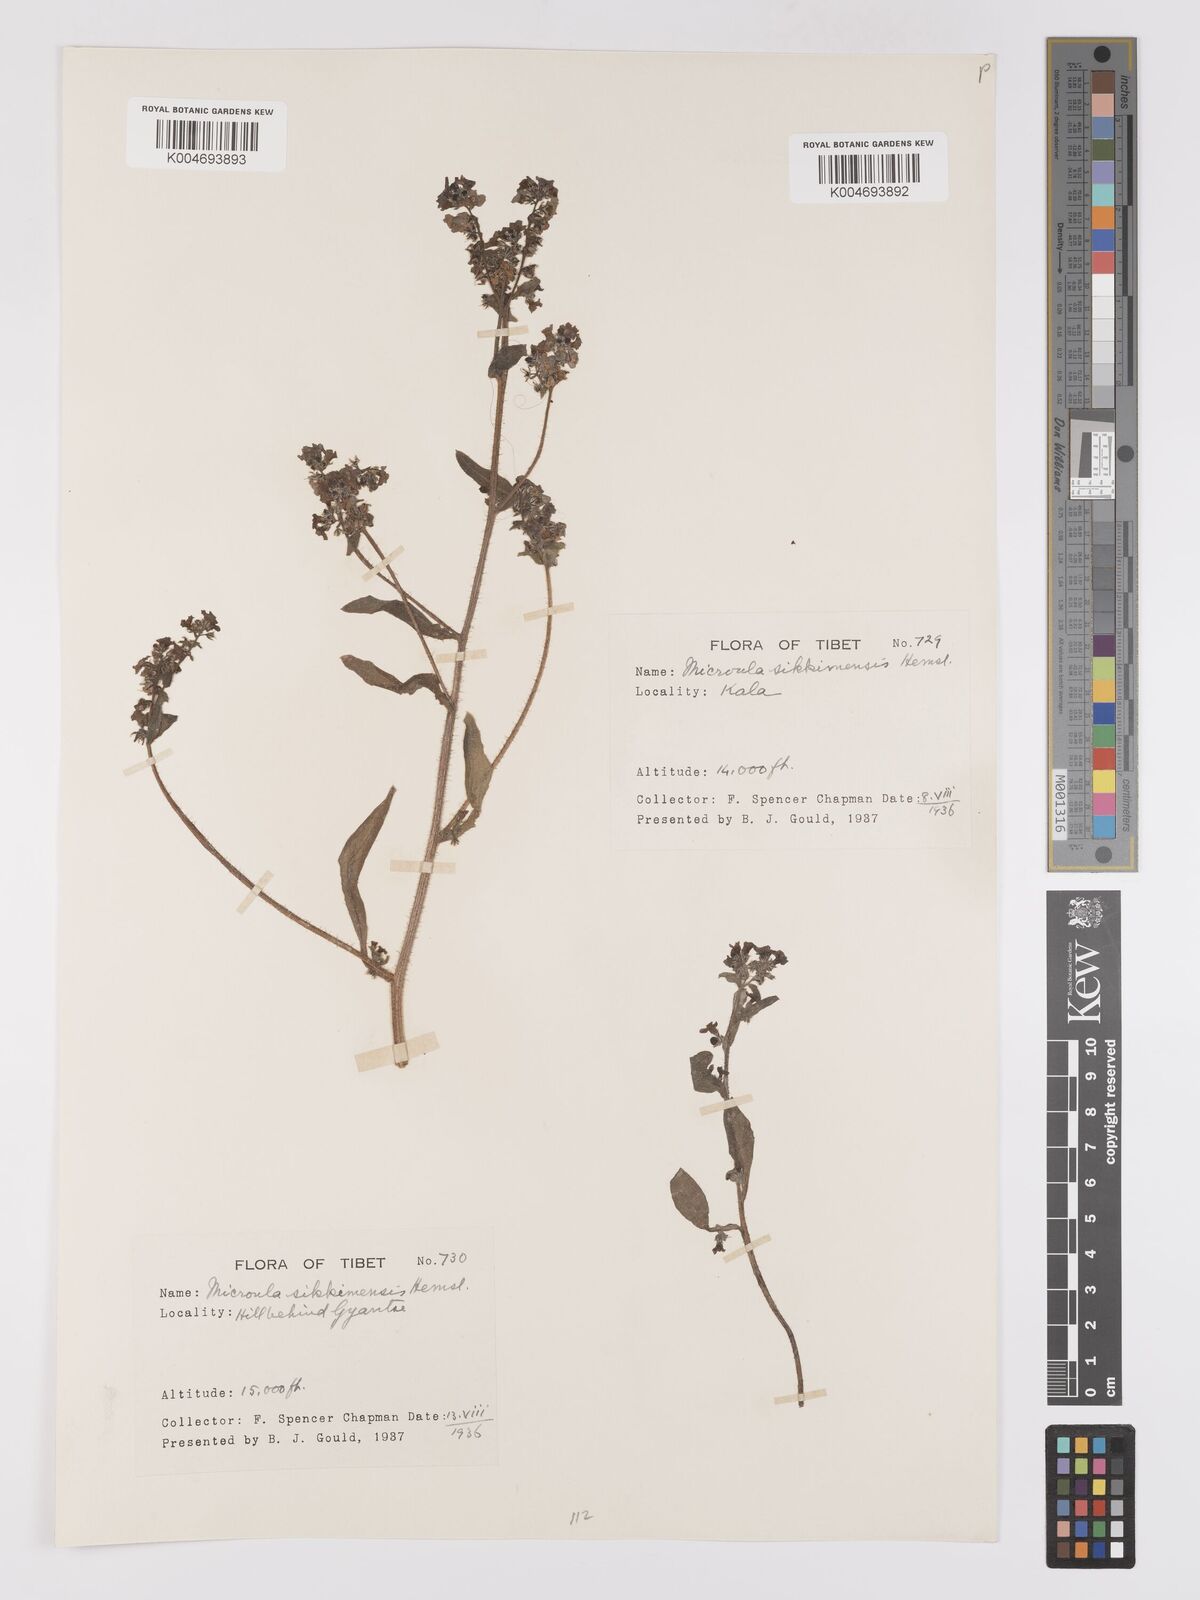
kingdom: Plantae
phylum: Tracheophyta
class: Magnoliopsida
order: Boraginales
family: Boraginaceae
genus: Microula
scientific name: Microula sikkimensis
